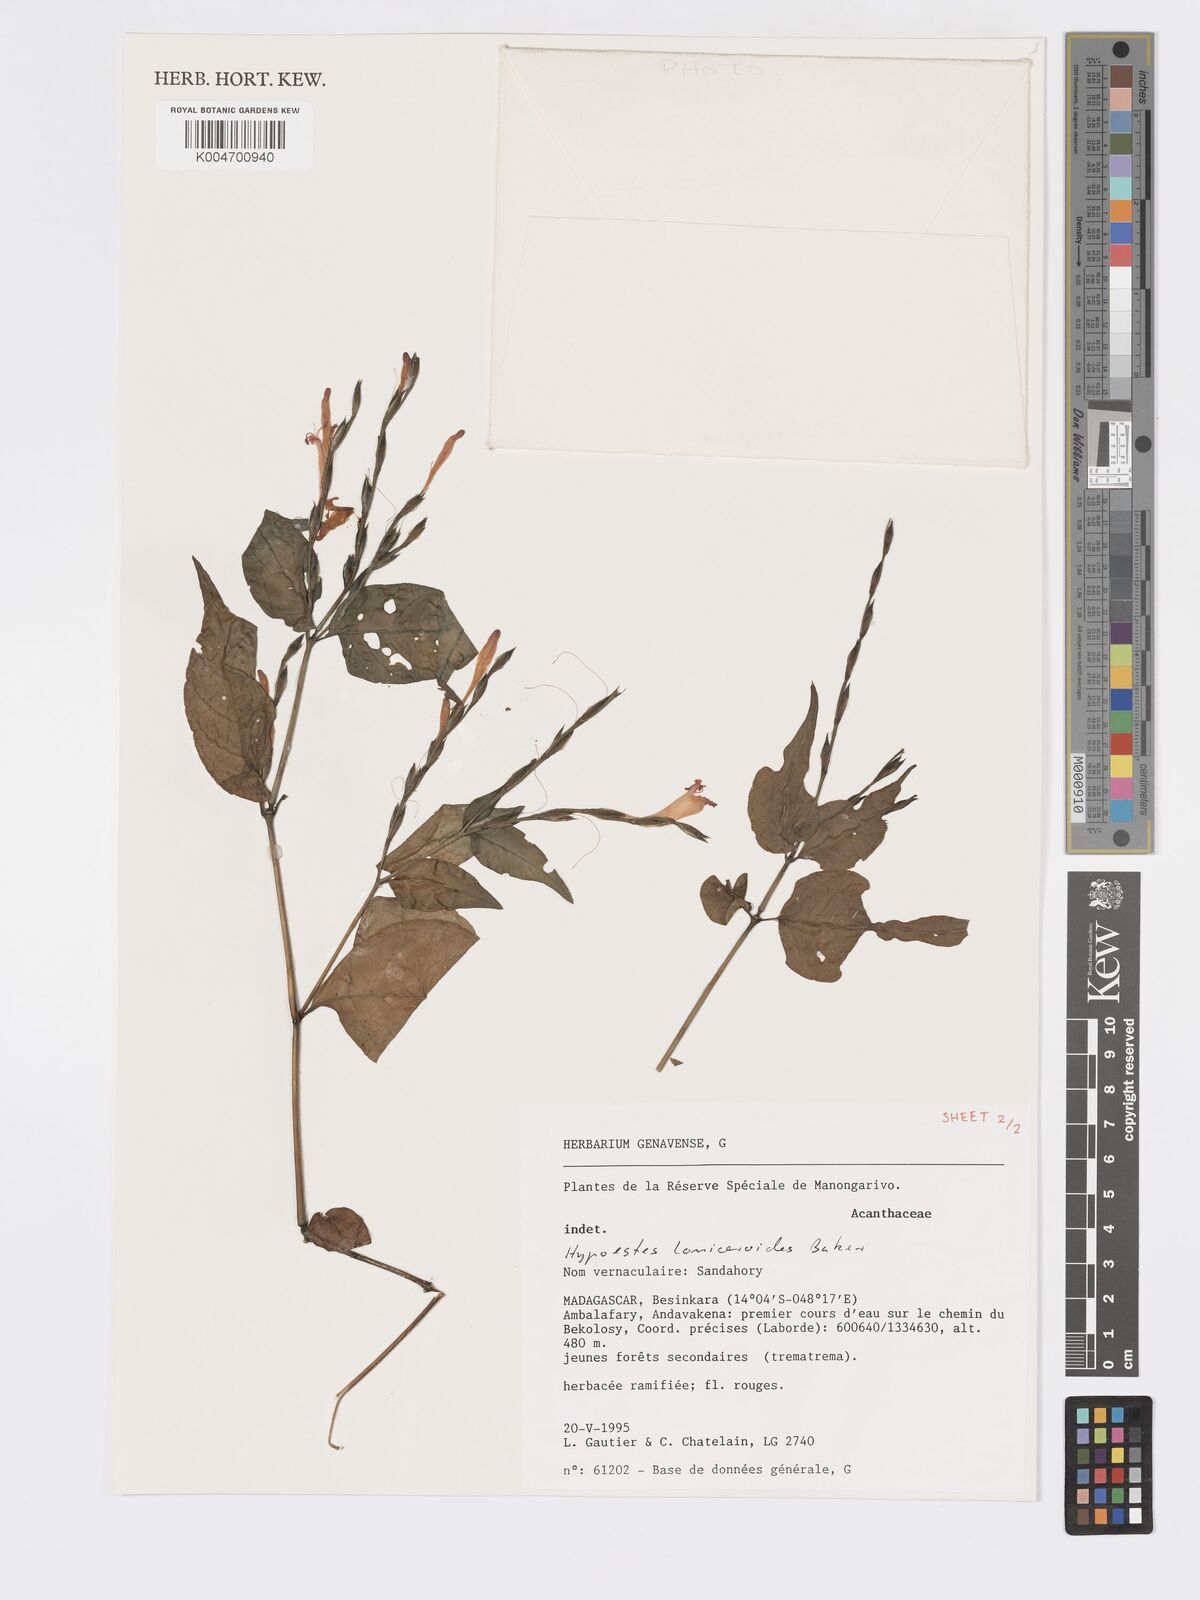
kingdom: Plantae
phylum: Tracheophyta
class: Magnoliopsida
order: Lamiales
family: Acanthaceae
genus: Hypoestes
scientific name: Hypoestes
